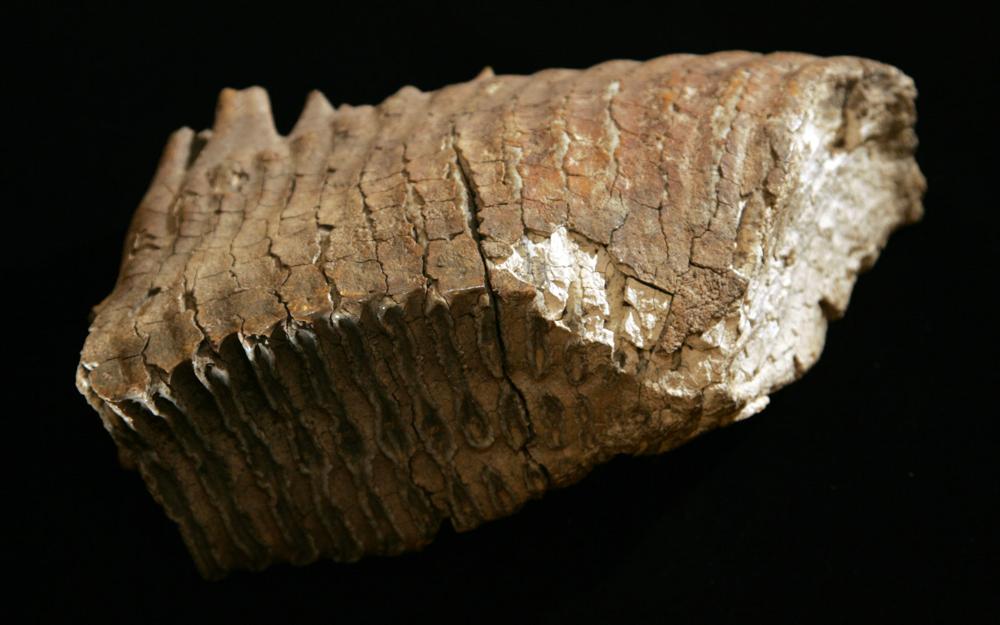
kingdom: Animalia
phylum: Chordata
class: Mammalia
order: Proboscidea
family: Elephantidae
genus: Mammuthus
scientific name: Mammuthus primigenius
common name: Wooly mammoth
